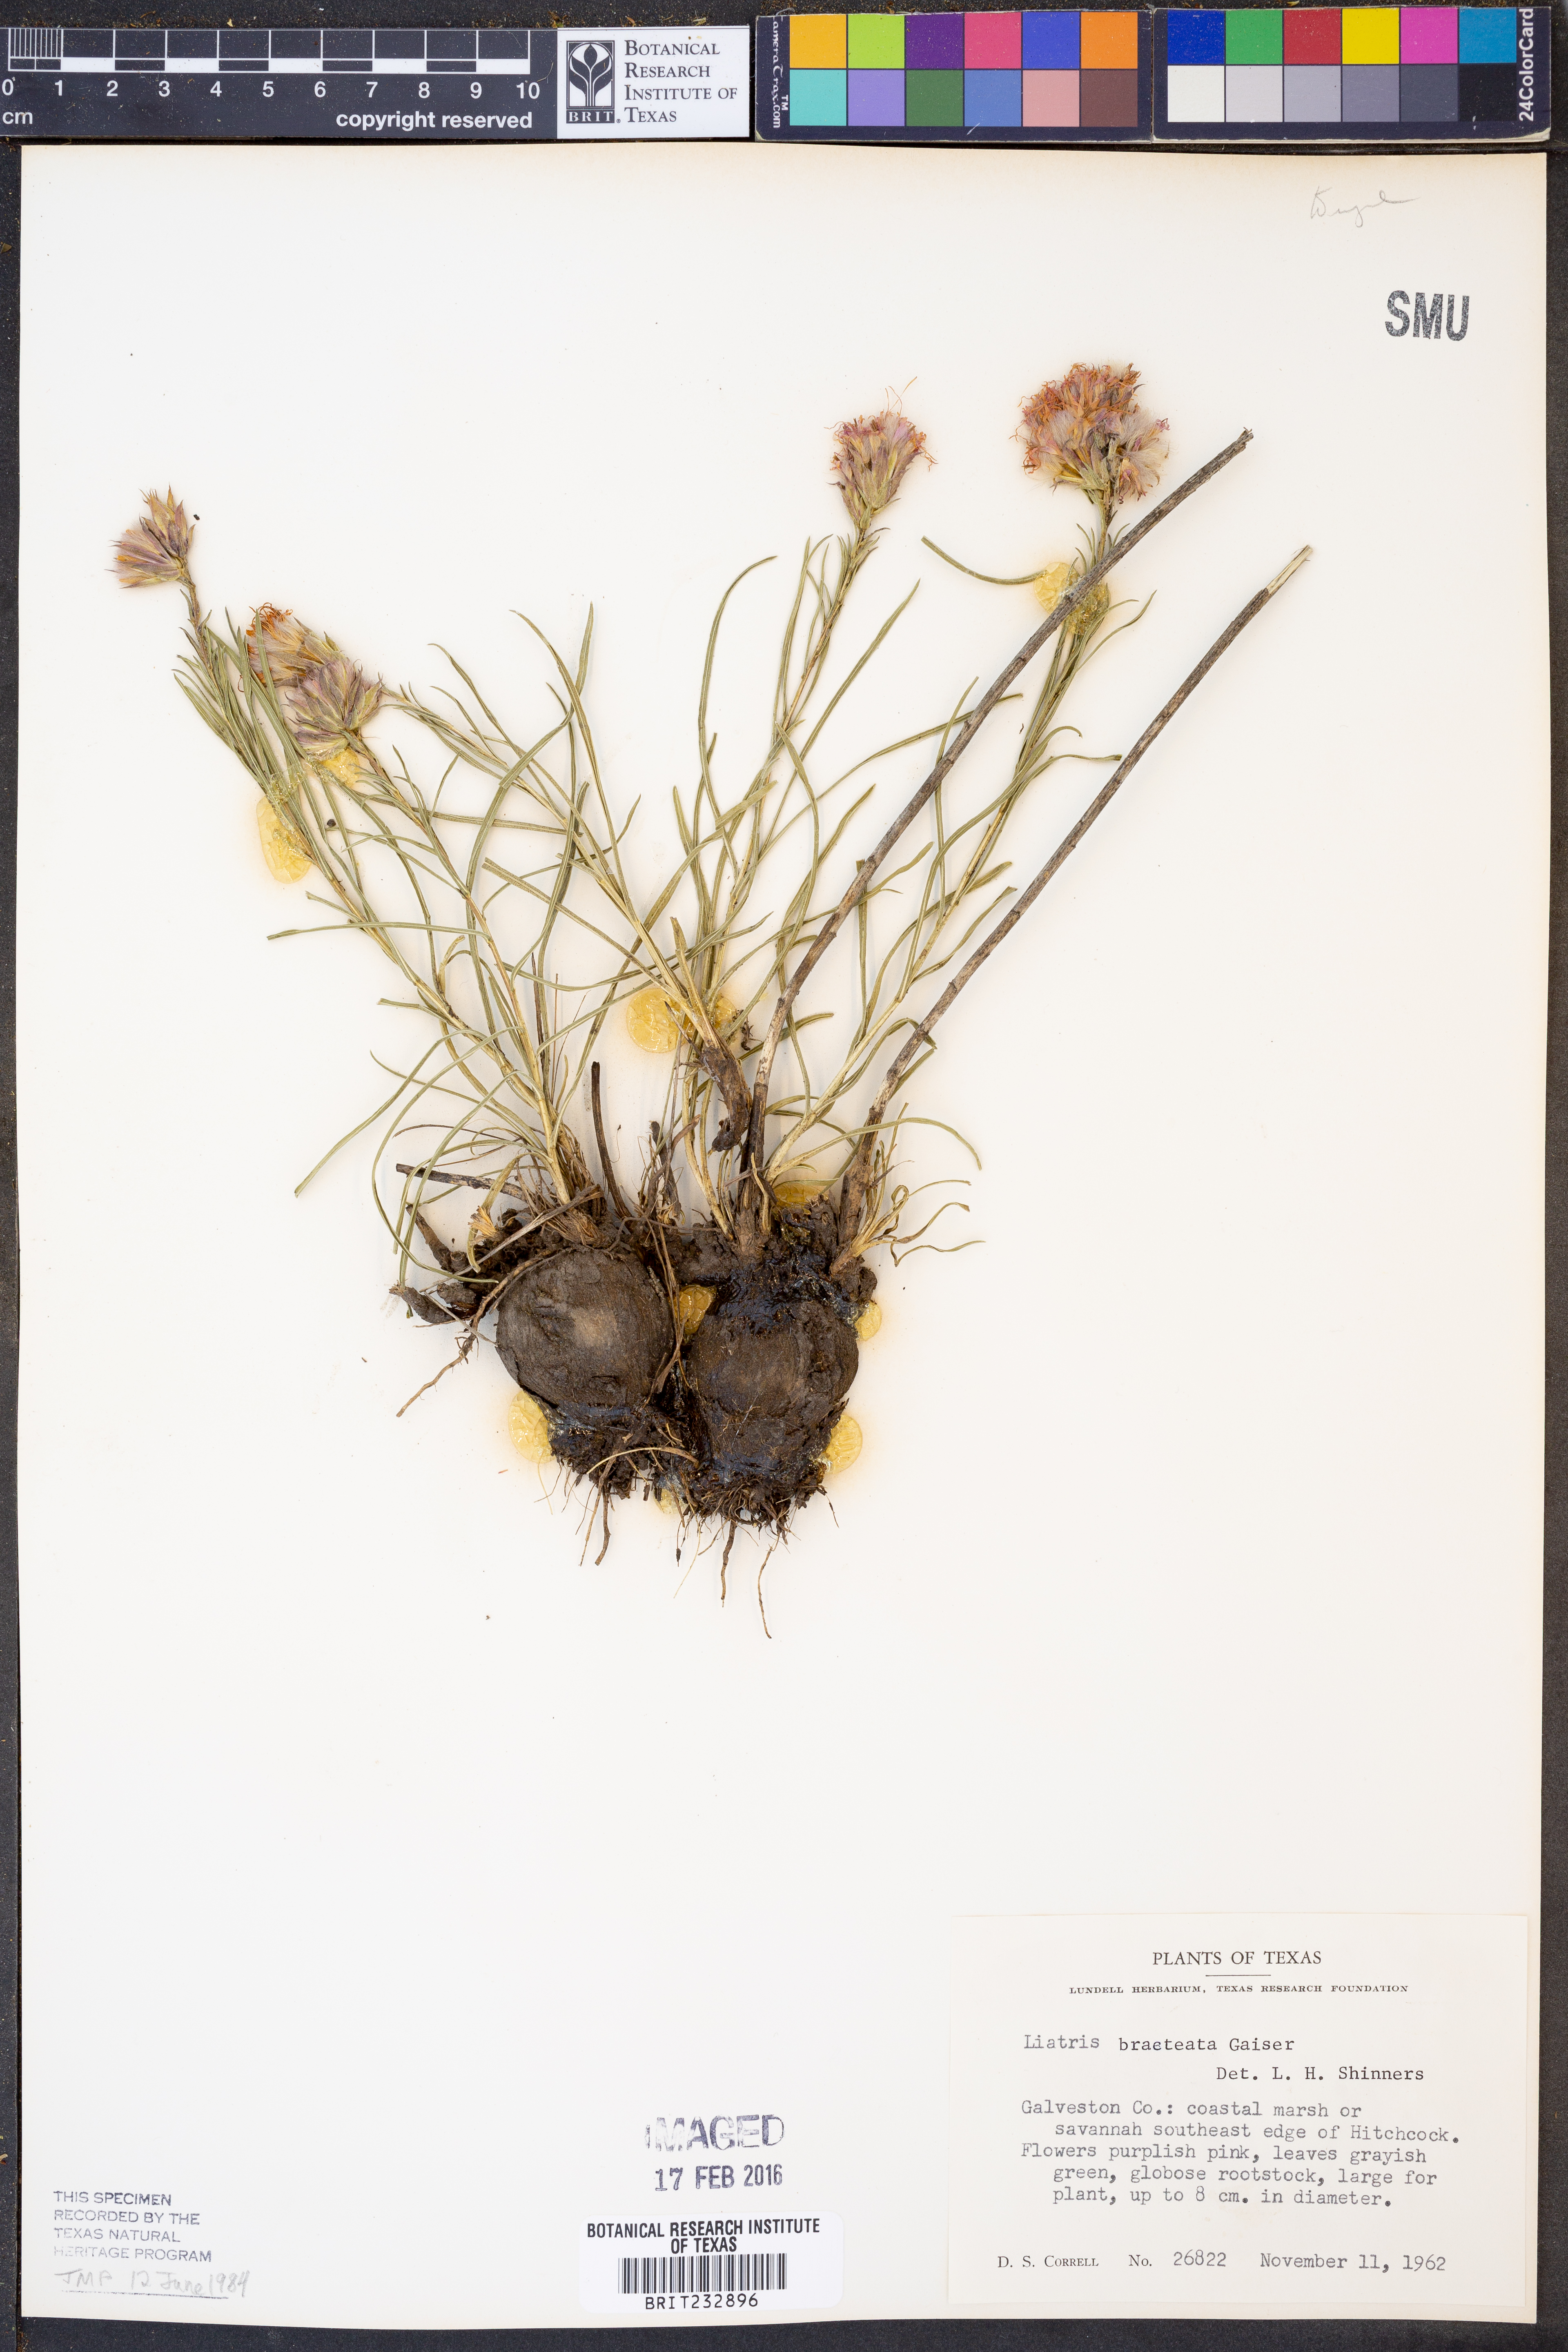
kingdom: Plantae
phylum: Tracheophyta
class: Magnoliopsida
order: Asterales
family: Asteraceae
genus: Liatris
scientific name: Liatris bracteata
